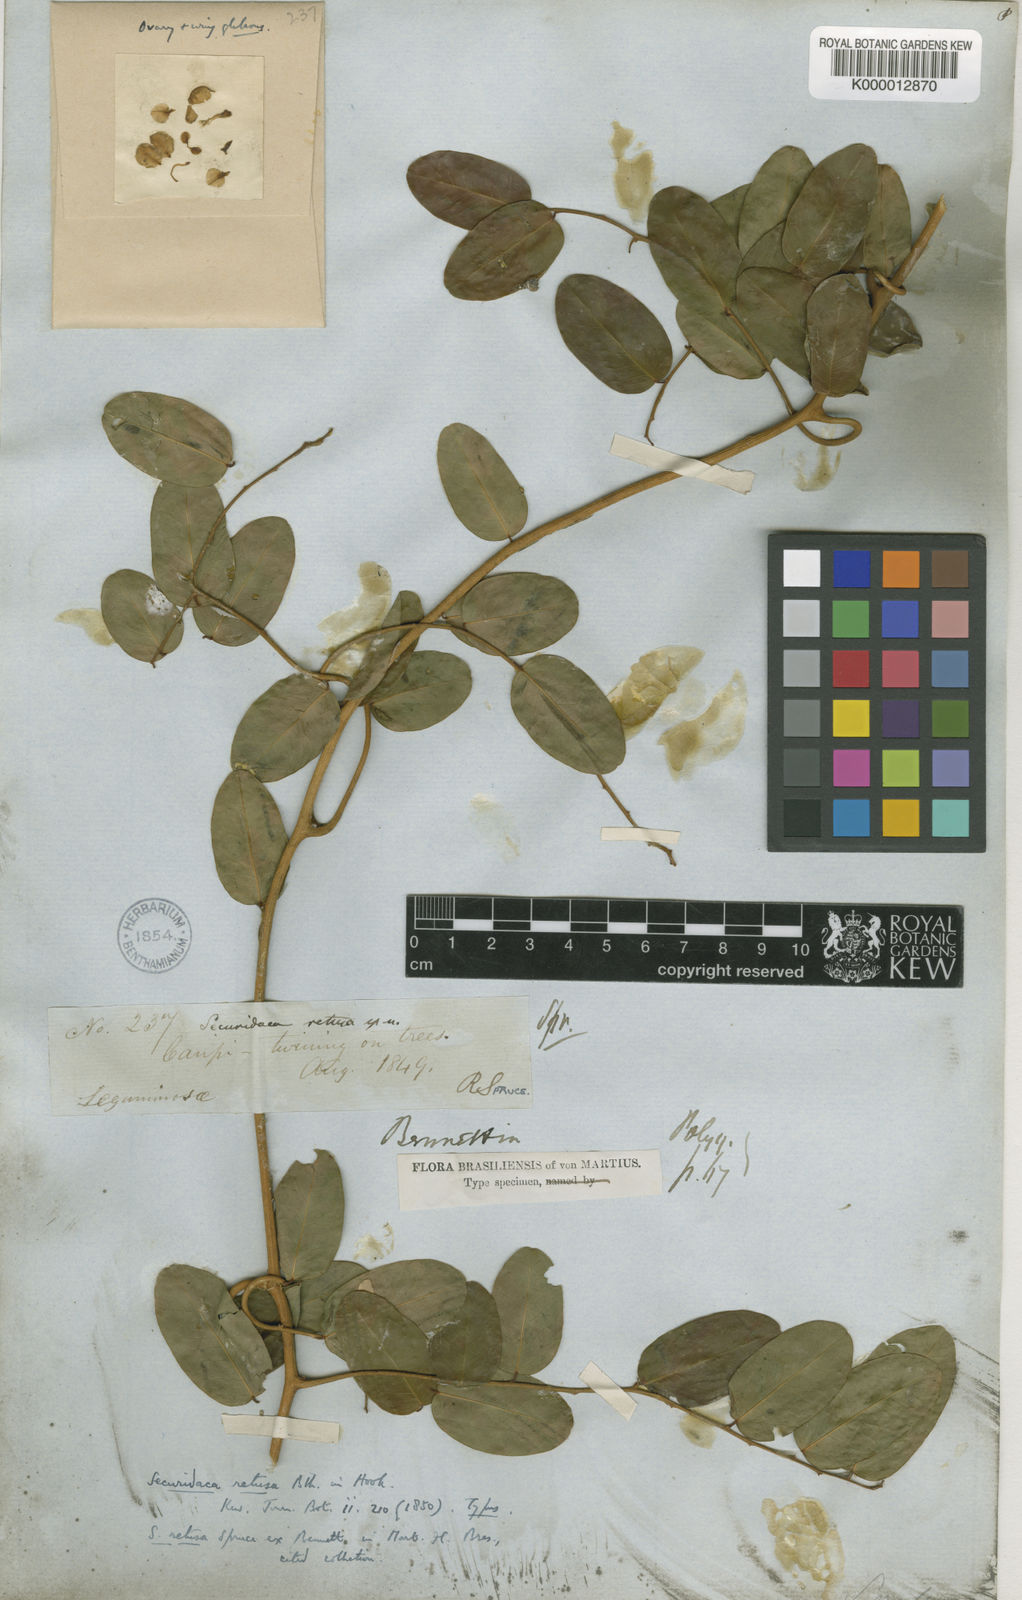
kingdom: Plantae
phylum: Tracheophyta
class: Magnoliopsida
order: Fabales
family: Polygalaceae
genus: Securidaca
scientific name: Securidaca retusa
